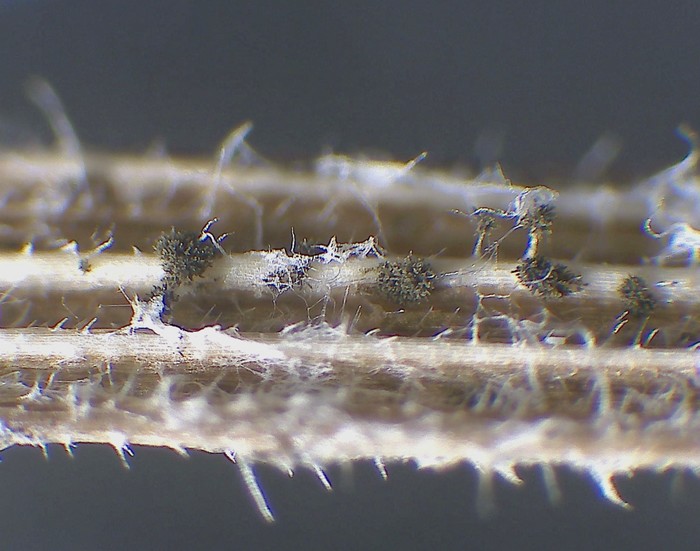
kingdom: Fungi
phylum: Ascomycota
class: Dothideomycetes
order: Pleosporales
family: Torulaceae
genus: Torula
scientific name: Torula herbarum
